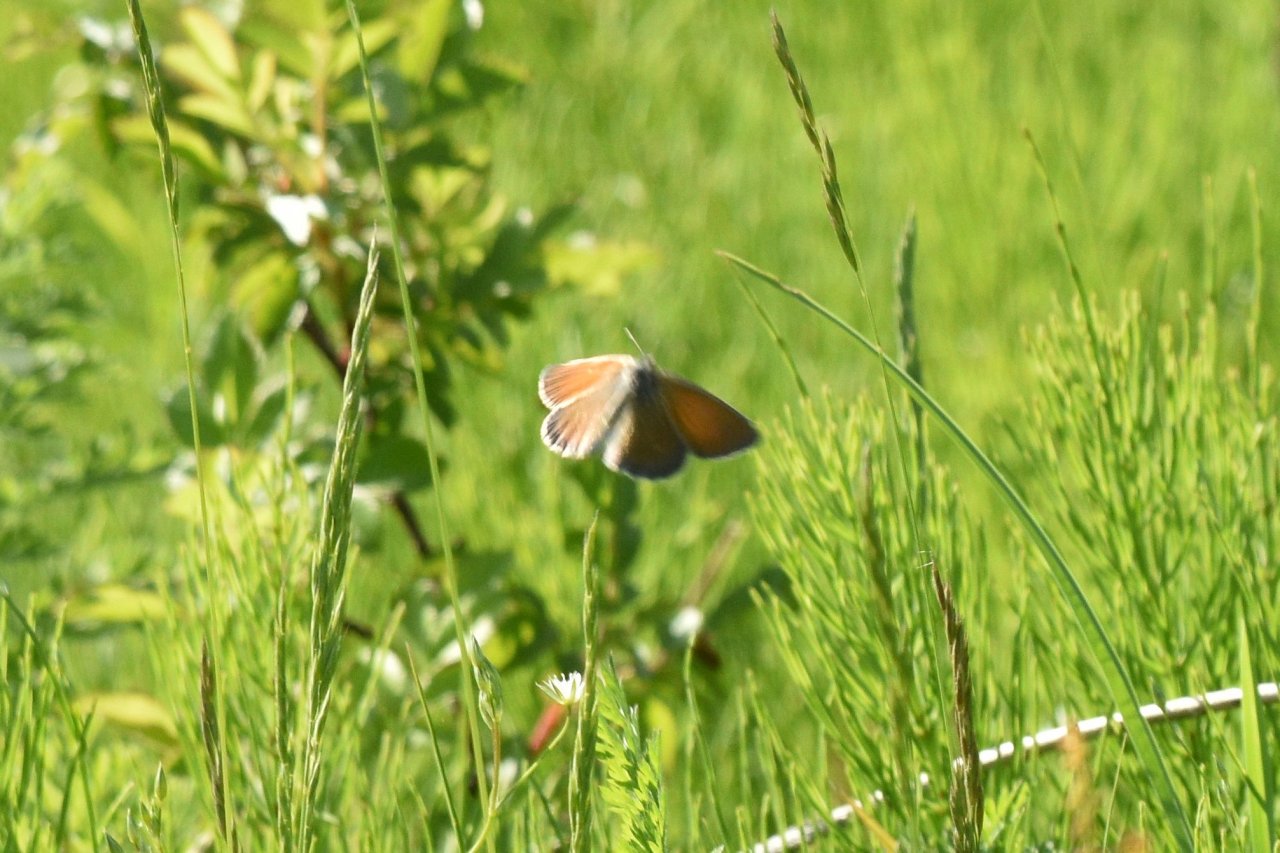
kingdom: Animalia
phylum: Arthropoda
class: Insecta
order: Lepidoptera
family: Nymphalidae
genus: Coenonympha
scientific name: Coenonympha tullia
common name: Large Heath
